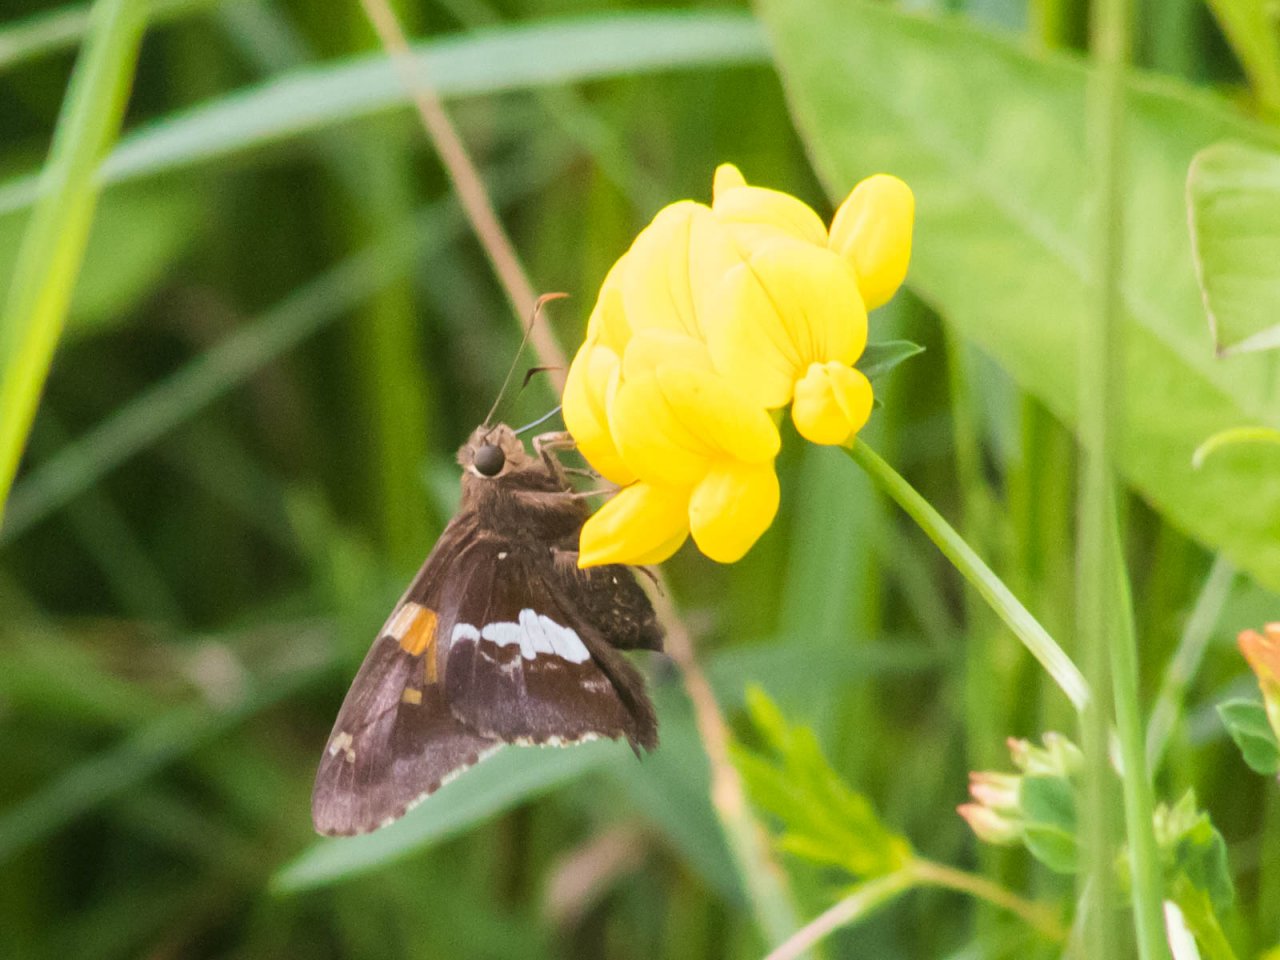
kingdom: Animalia
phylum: Arthropoda
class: Insecta
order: Lepidoptera
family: Hesperiidae
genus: Epargyreus
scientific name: Epargyreus clarus
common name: Silver-spotted Skipper
